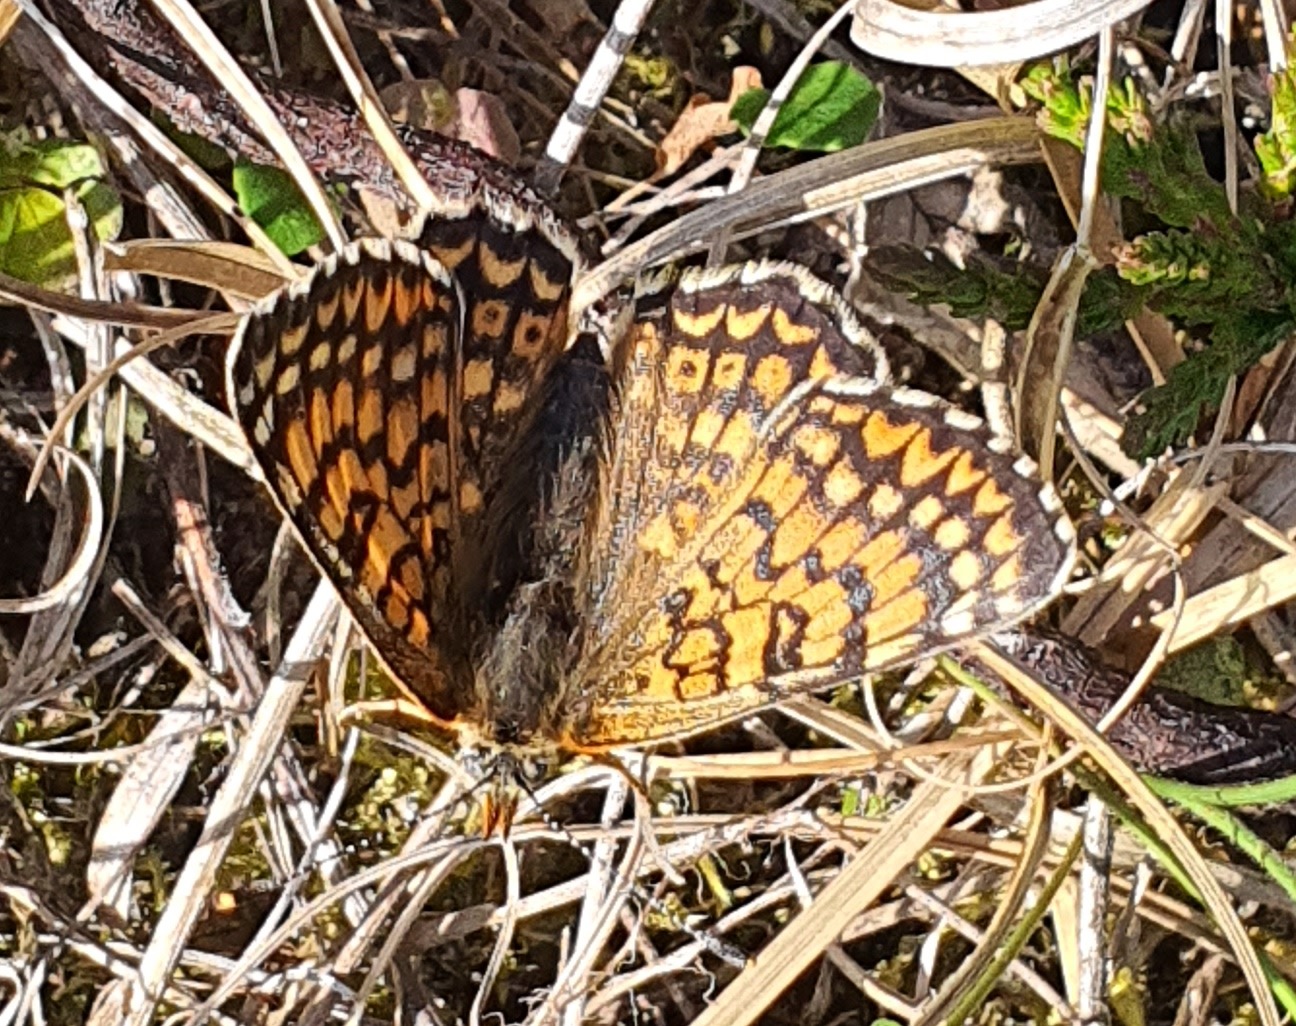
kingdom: Animalia
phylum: Arthropoda
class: Insecta
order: Lepidoptera
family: Nymphalidae
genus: Melitaea
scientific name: Melitaea cinxia
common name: Okkergul pletvinge
